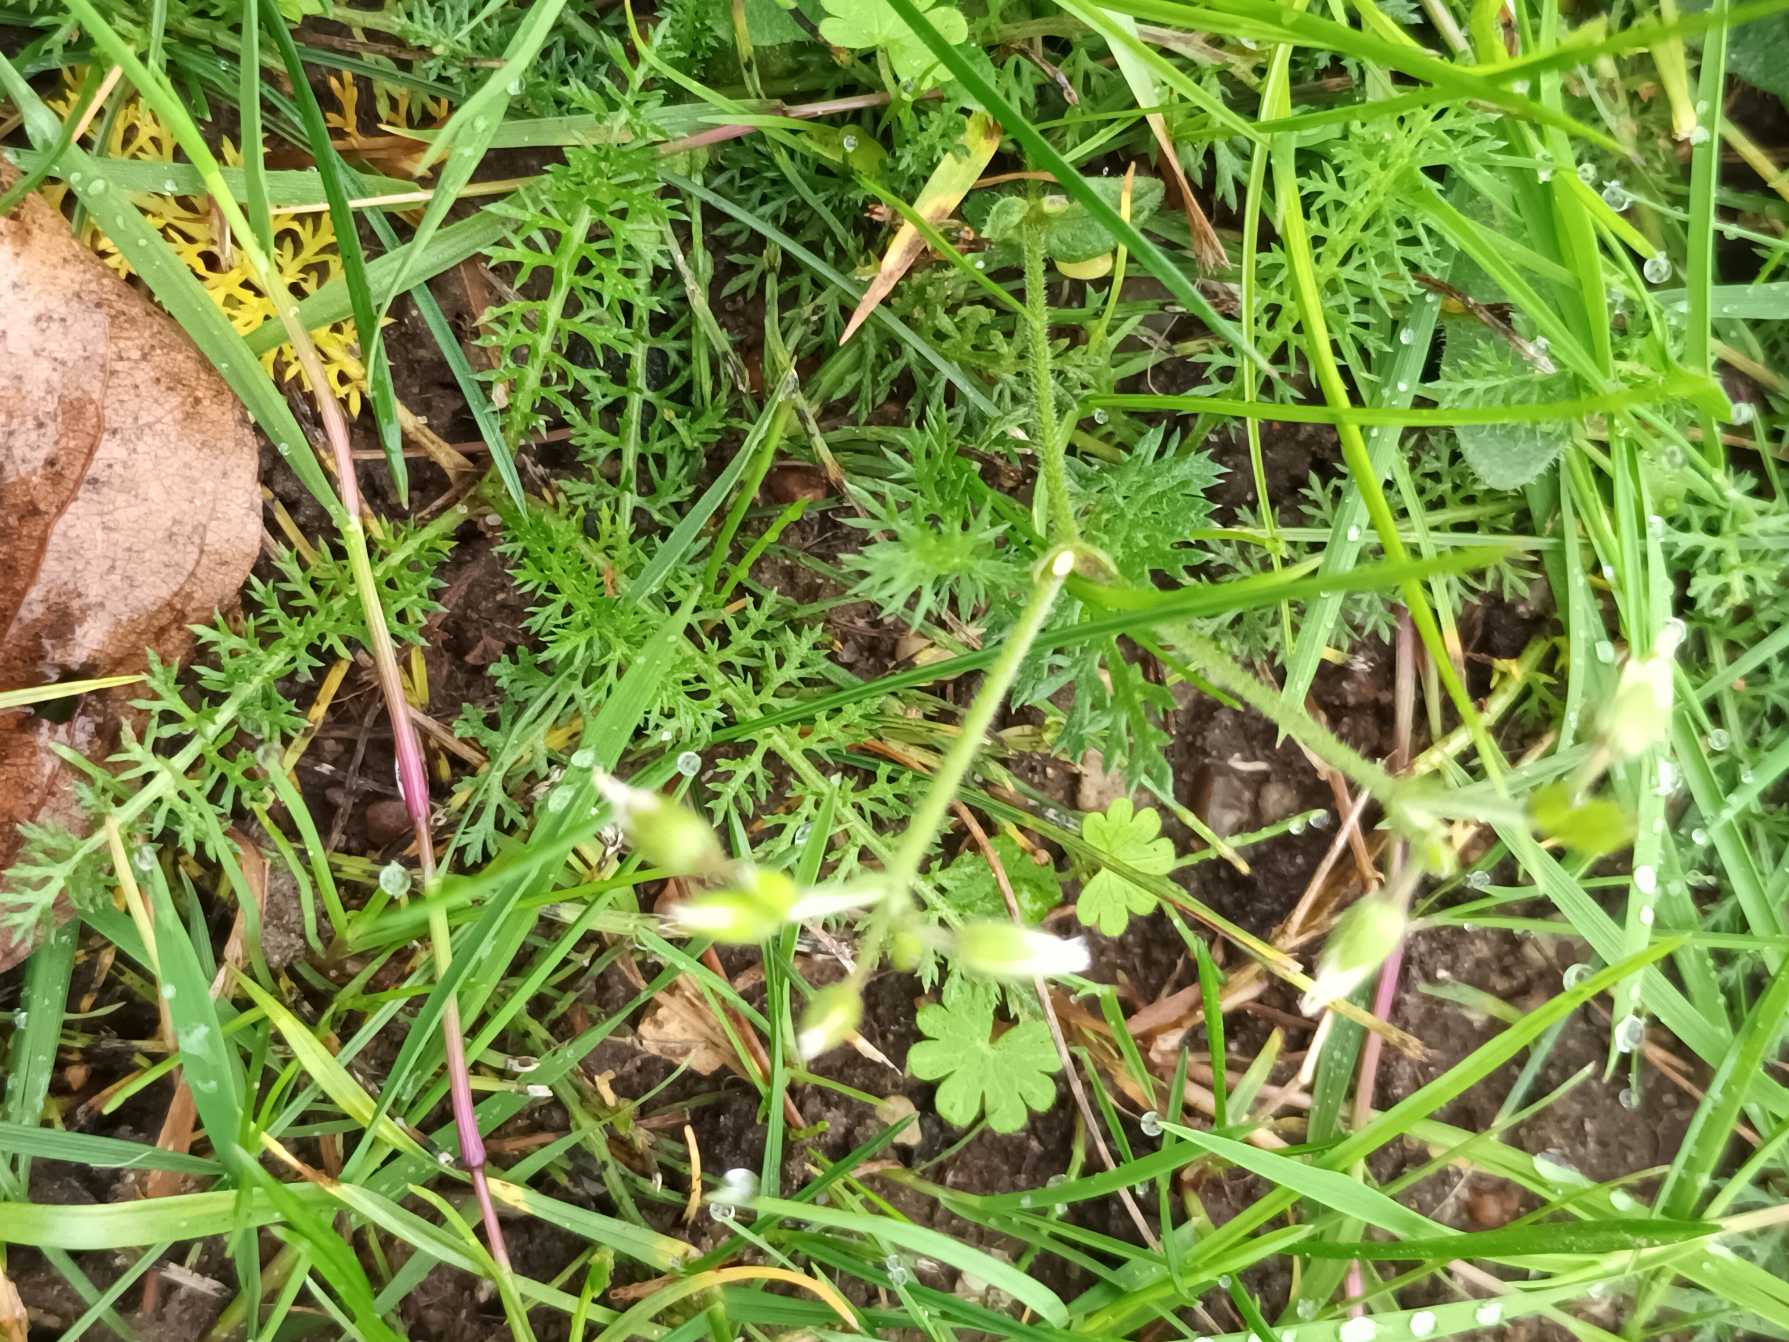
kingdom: Plantae
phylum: Tracheophyta
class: Magnoliopsida
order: Caryophyllales
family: Caryophyllaceae
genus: Cerastium
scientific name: Cerastium fontanum
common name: Almindelig hønsetarm
